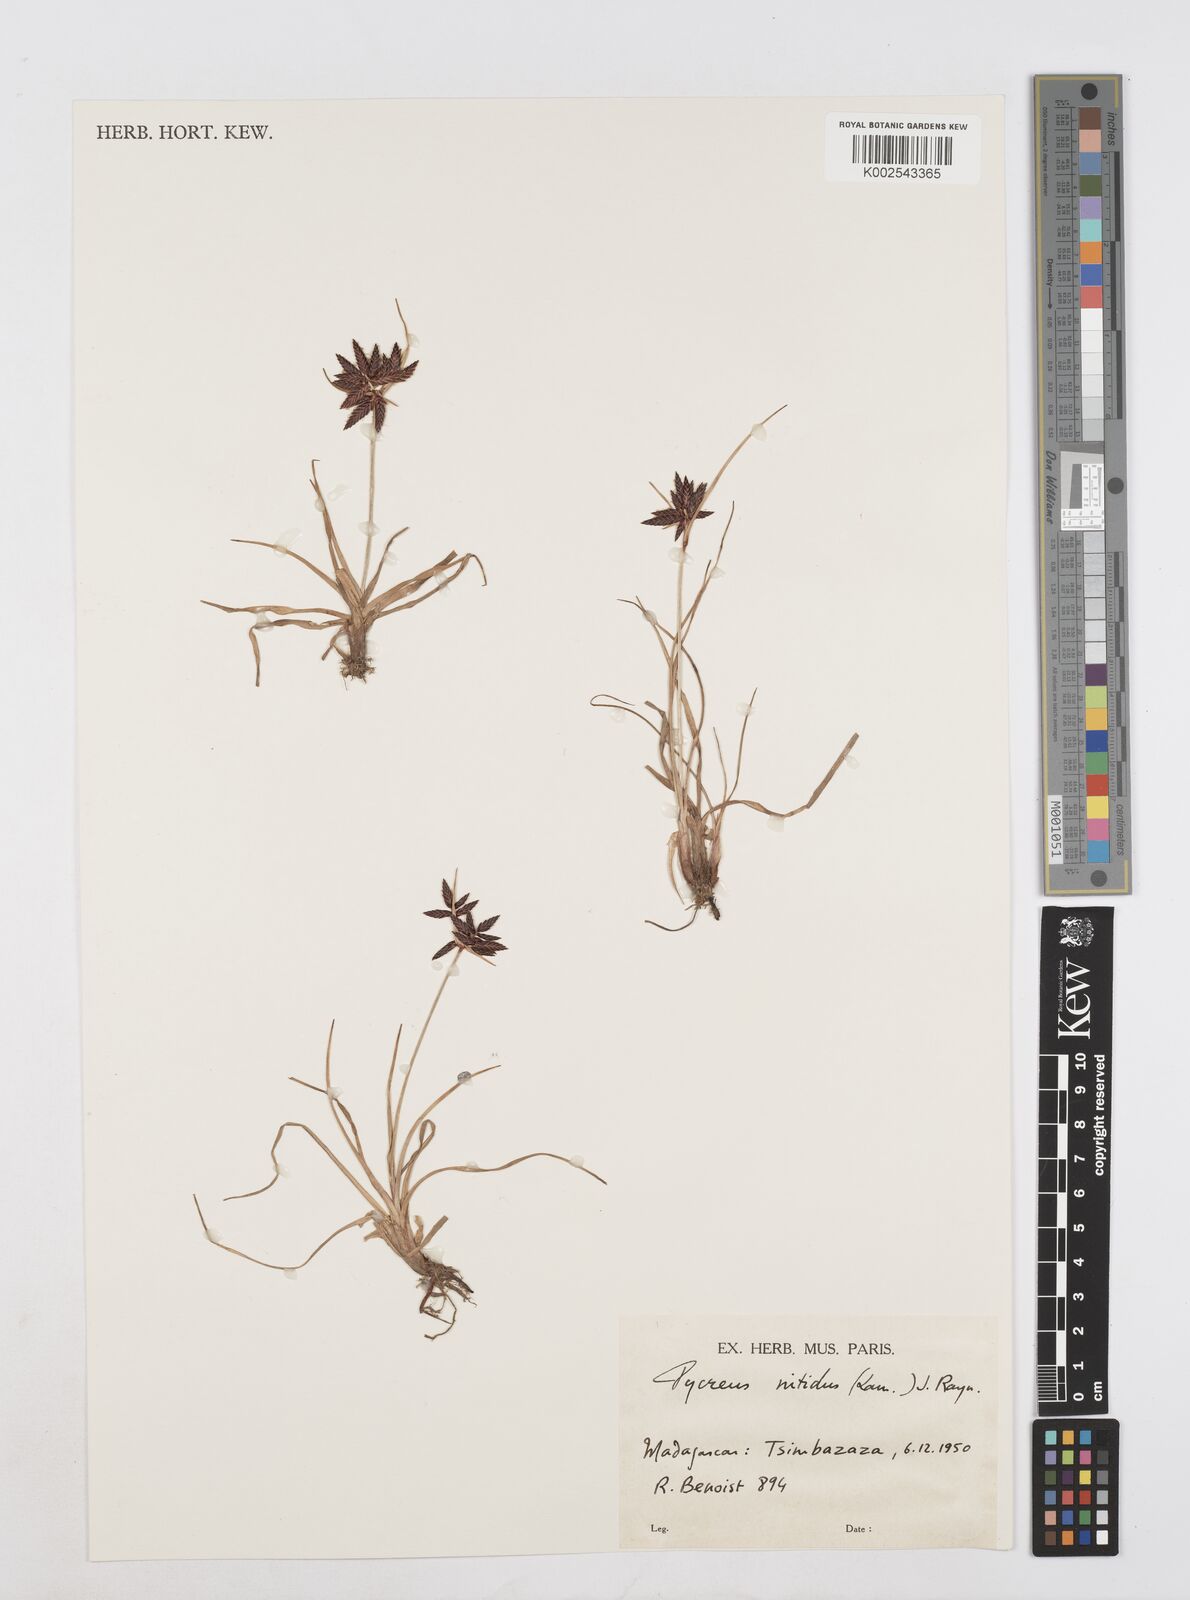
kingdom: Plantae
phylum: Tracheophyta
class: Liliopsida
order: Poales
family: Cyperaceae
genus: Cyperus
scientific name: Cyperus nitidus
